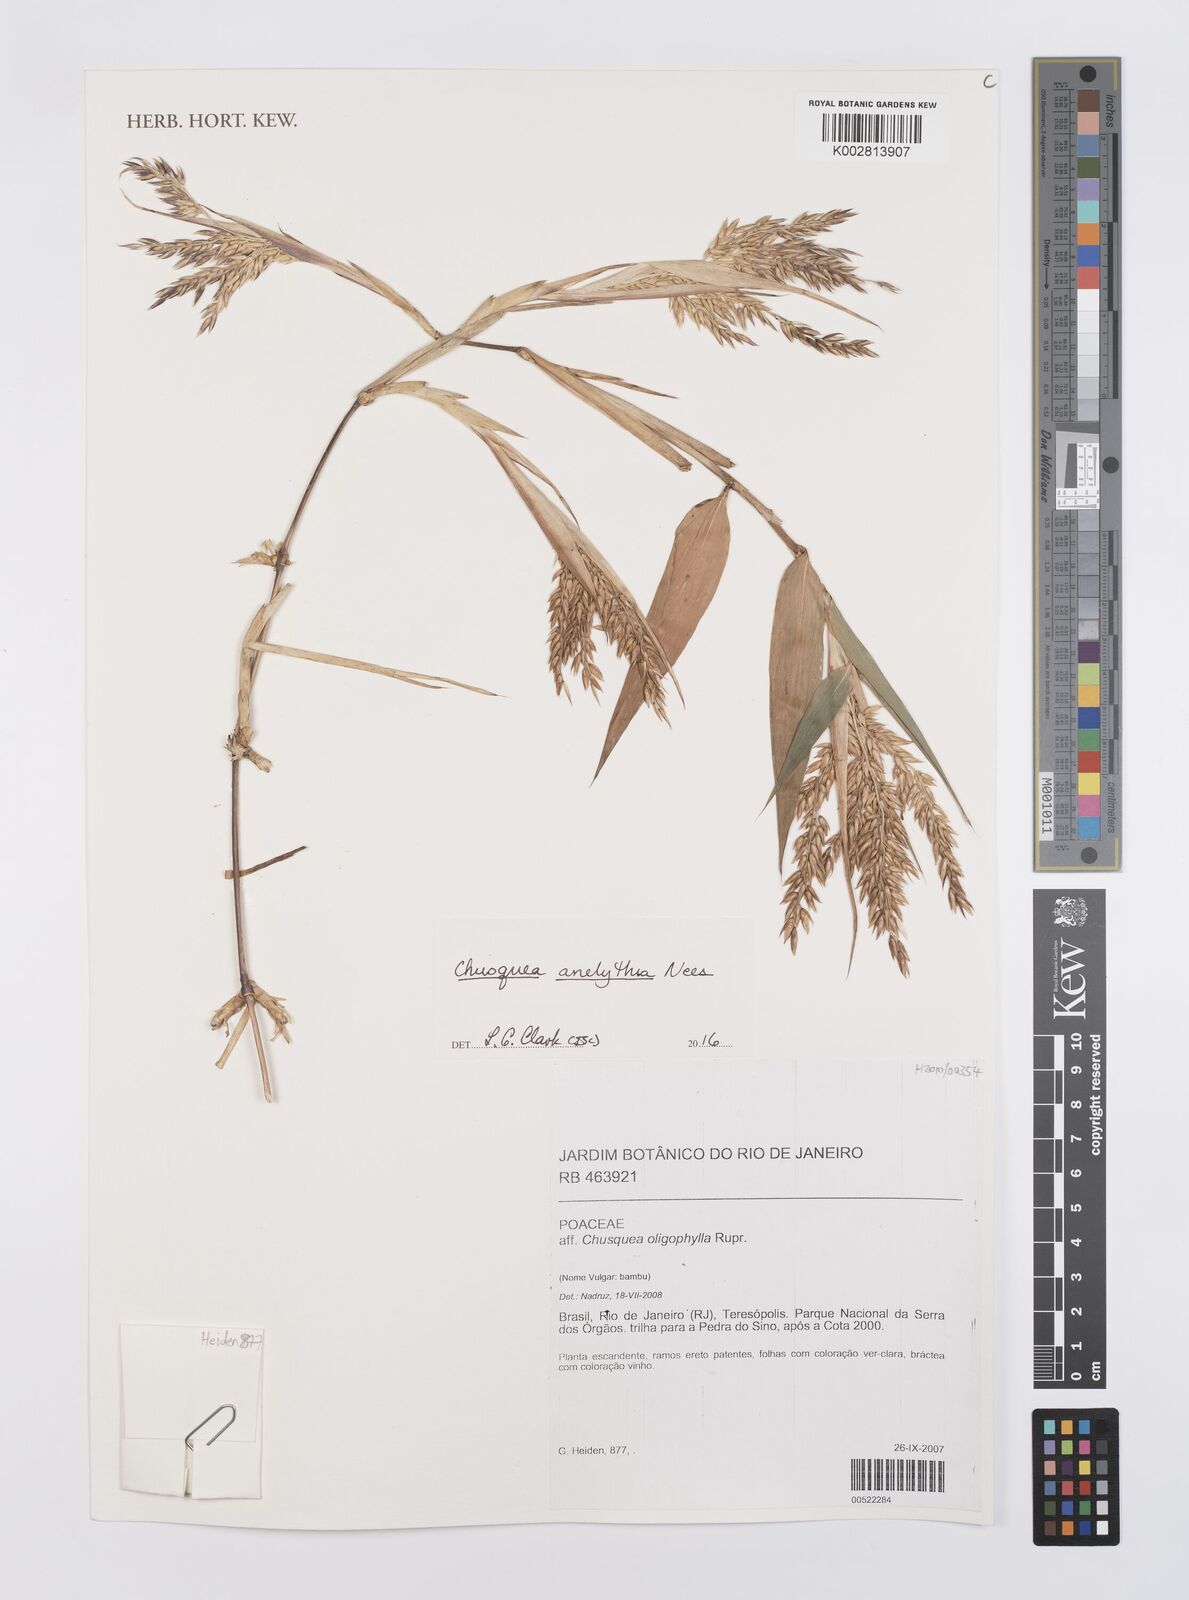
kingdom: Plantae
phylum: Tracheophyta
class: Liliopsida
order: Poales
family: Poaceae
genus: Chusquea
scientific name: Chusquea anelythra
